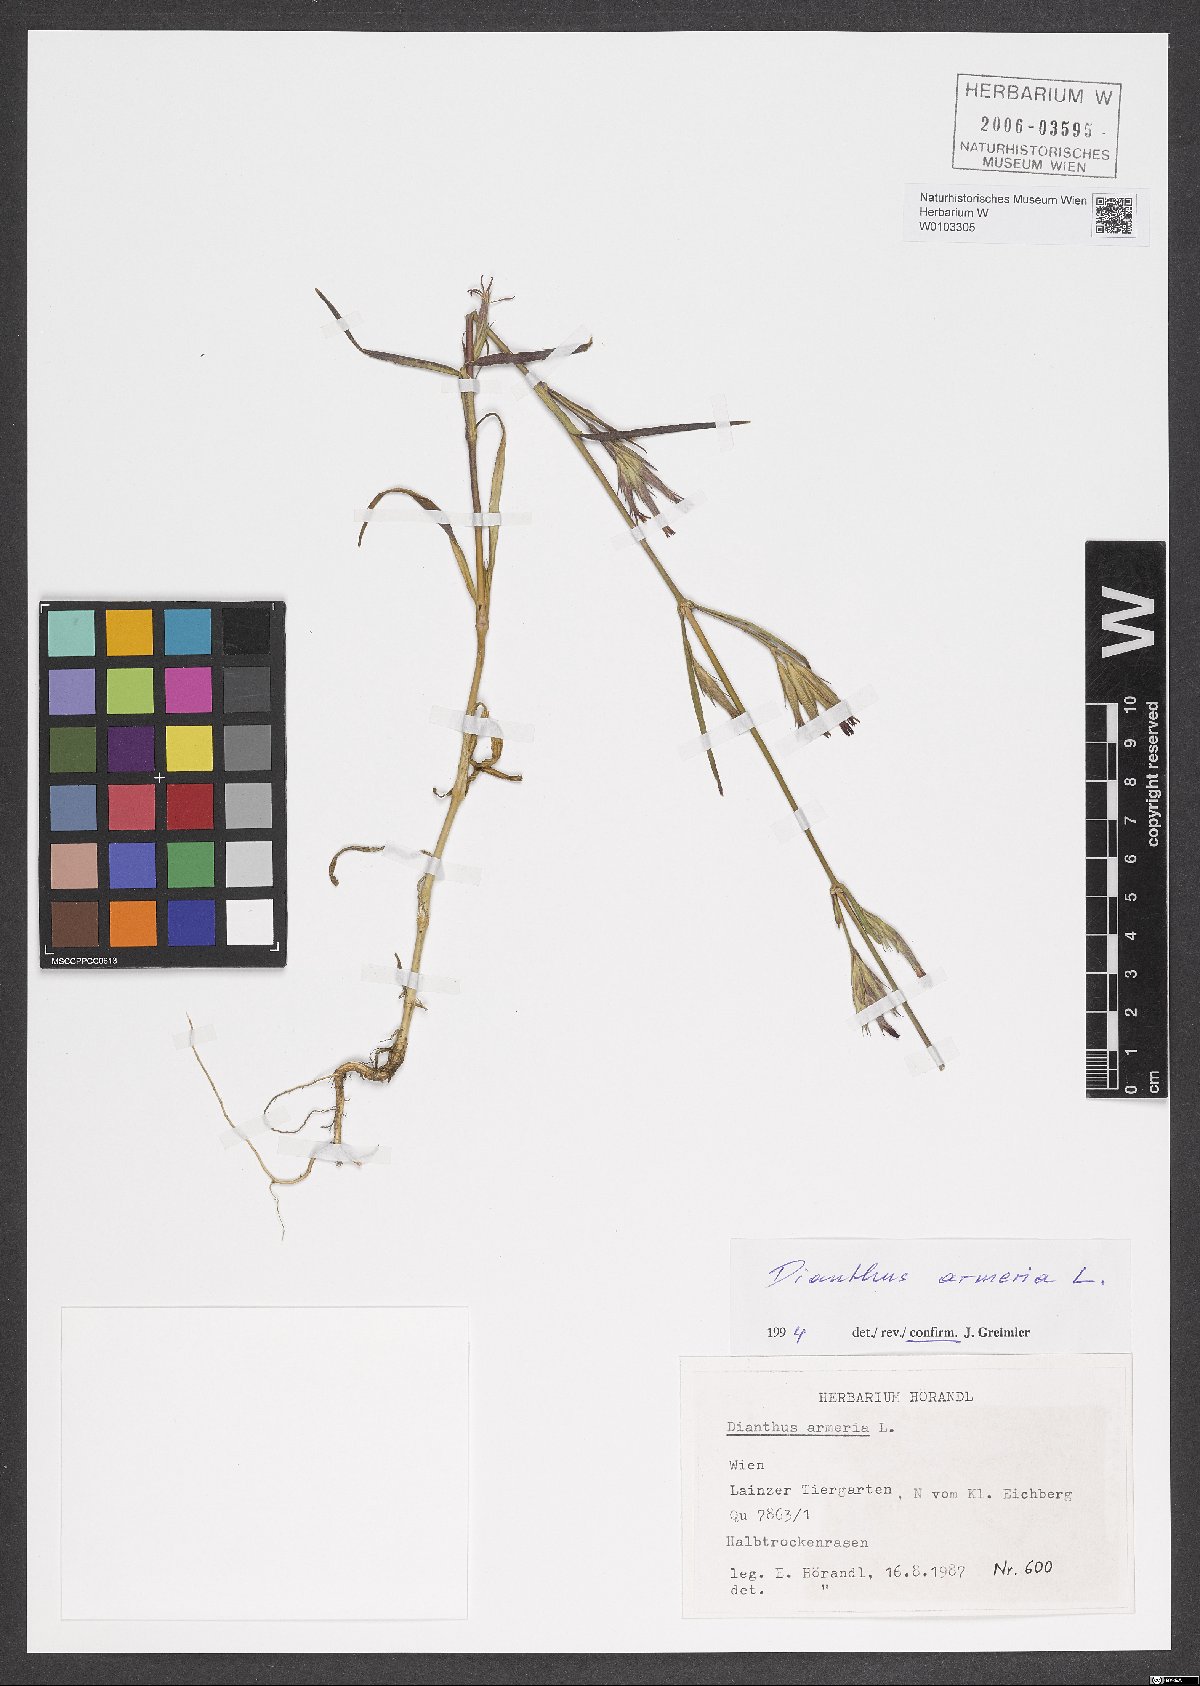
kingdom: Plantae
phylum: Tracheophyta
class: Magnoliopsida
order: Caryophyllales
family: Caryophyllaceae
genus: Dianthus
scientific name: Dianthus armeria
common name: Deptford pink
